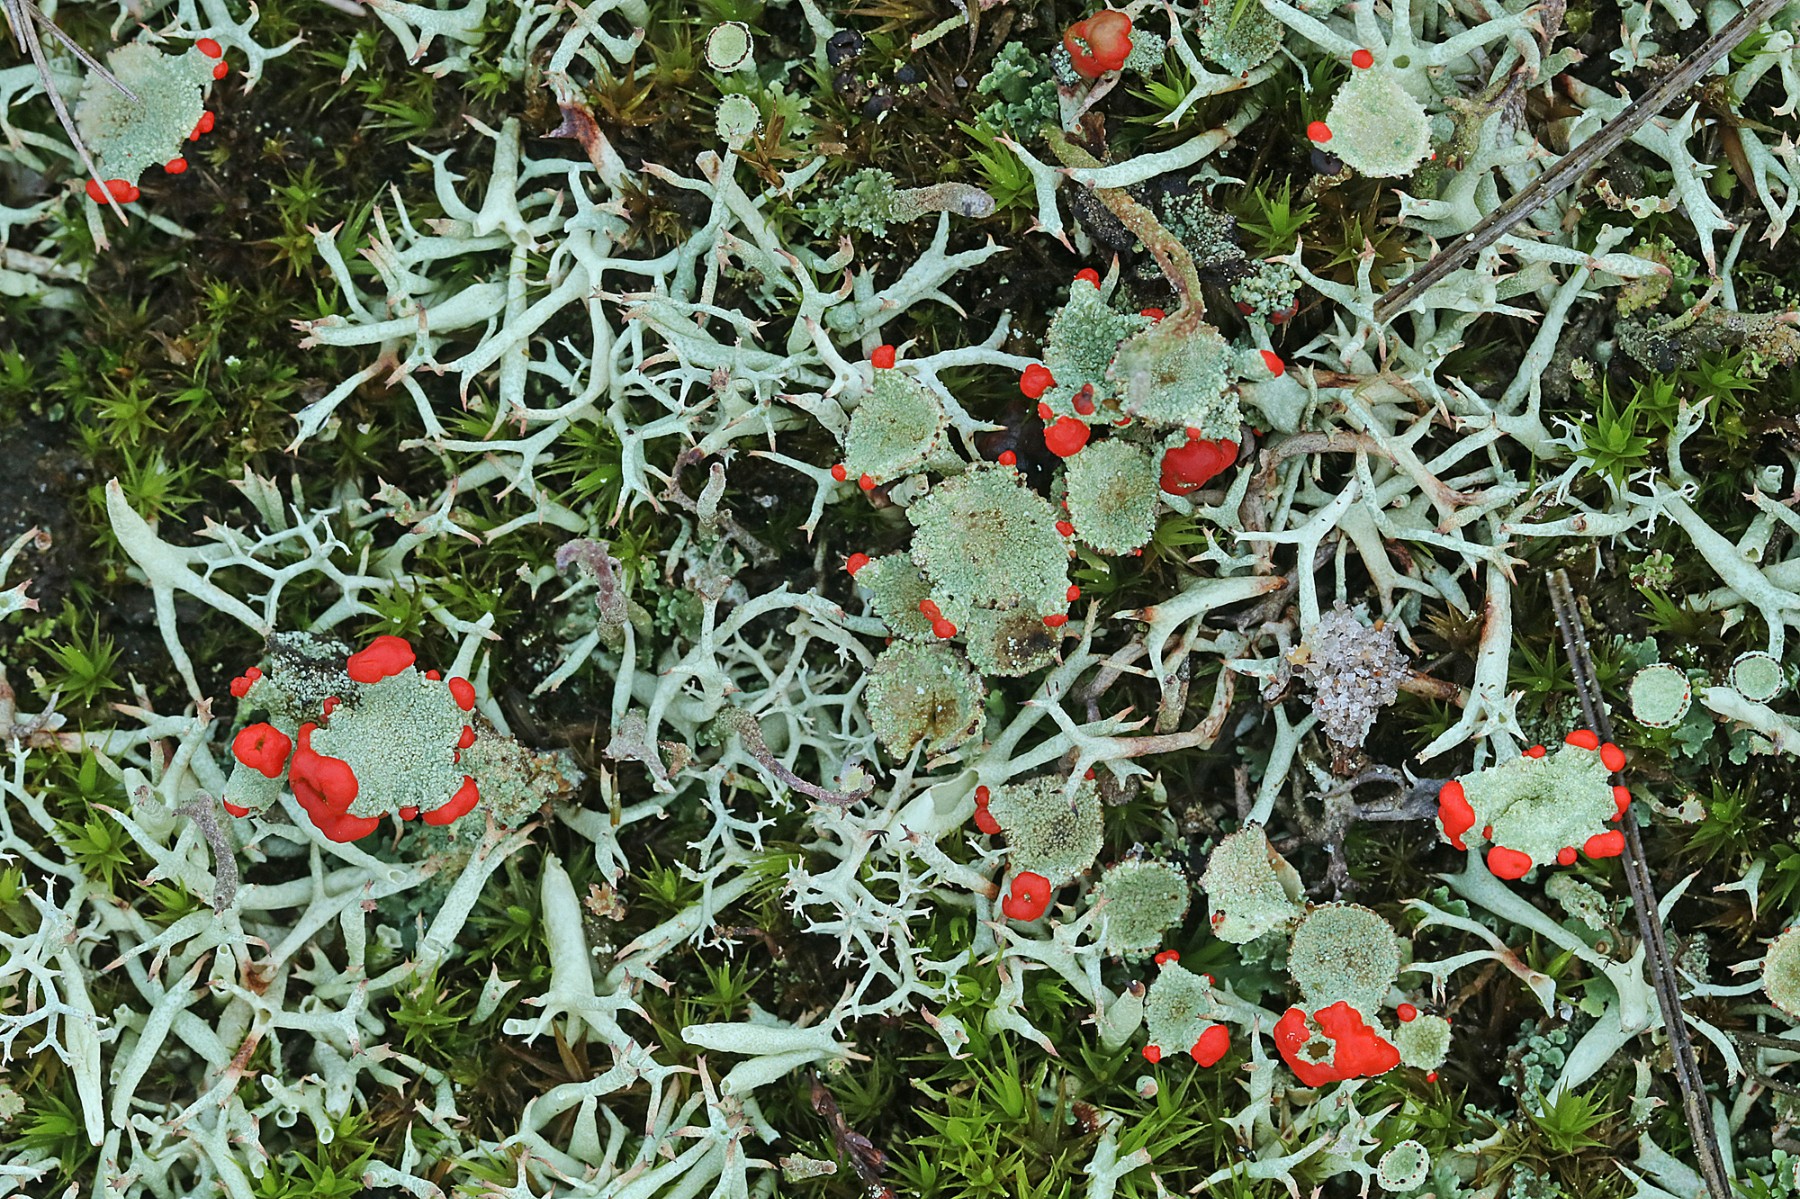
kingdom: Fungi
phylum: Ascomycota
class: Lecanoromycetes
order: Lecanorales
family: Cladoniaceae
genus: Cladonia
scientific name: Cladonia diversa
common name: rød bægerlav
